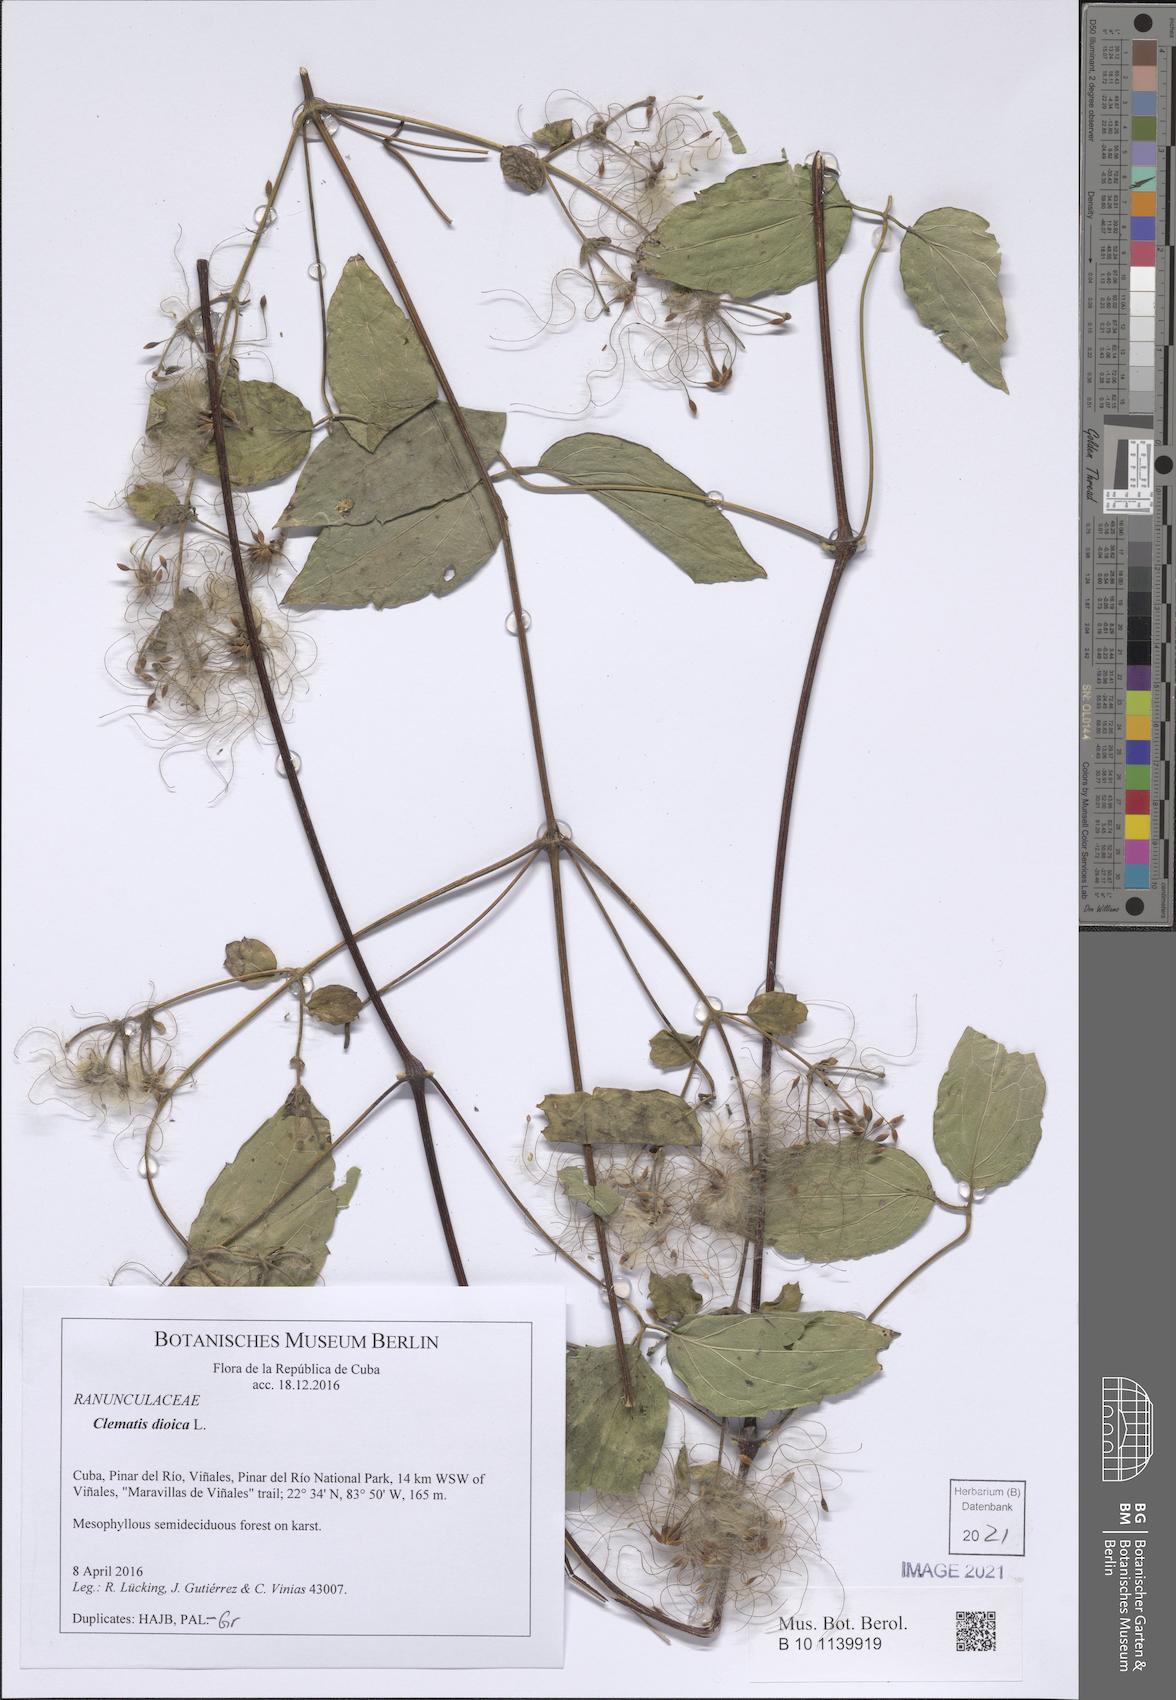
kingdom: Plantae
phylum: Tracheophyta
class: Magnoliopsida
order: Ranunculales
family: Ranunculaceae
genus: Clematis
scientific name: Clematis dioica
